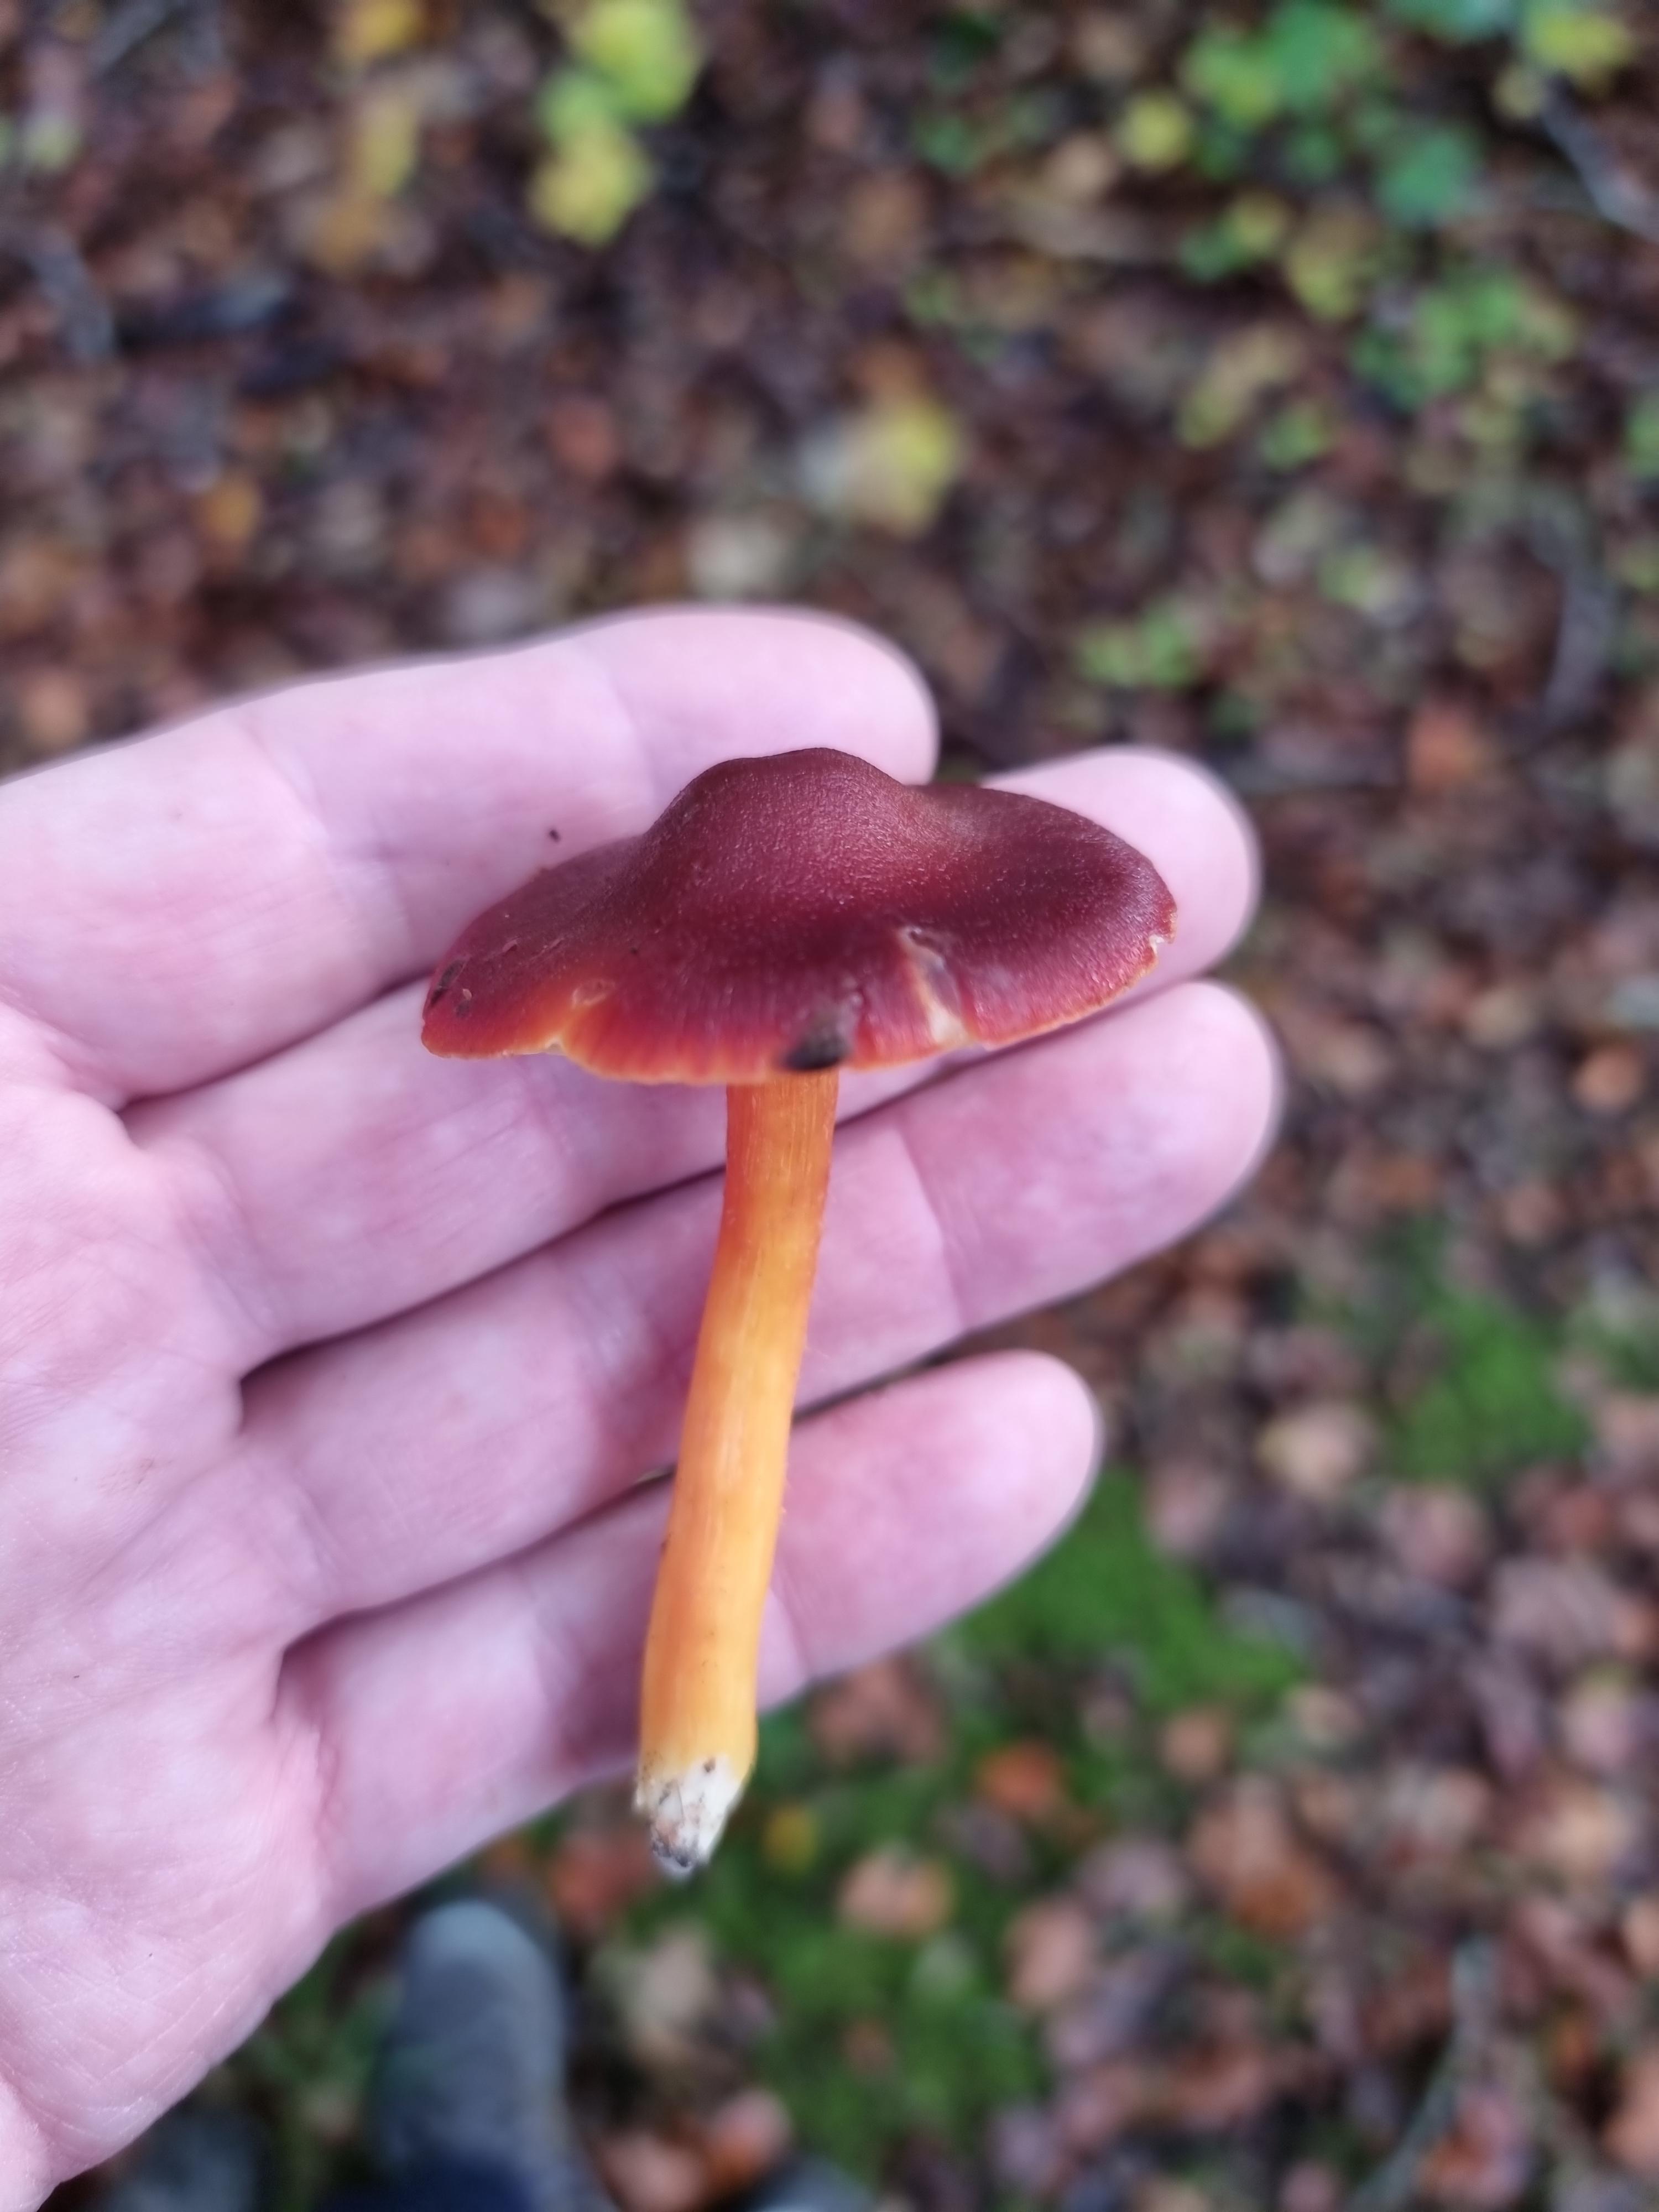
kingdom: Fungi
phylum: Basidiomycota
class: Agaricomycetes
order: Agaricales
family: Hygrophoraceae
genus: Hygrocybe
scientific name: Hygrocybe punicea
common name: skarlagen-vokshat
